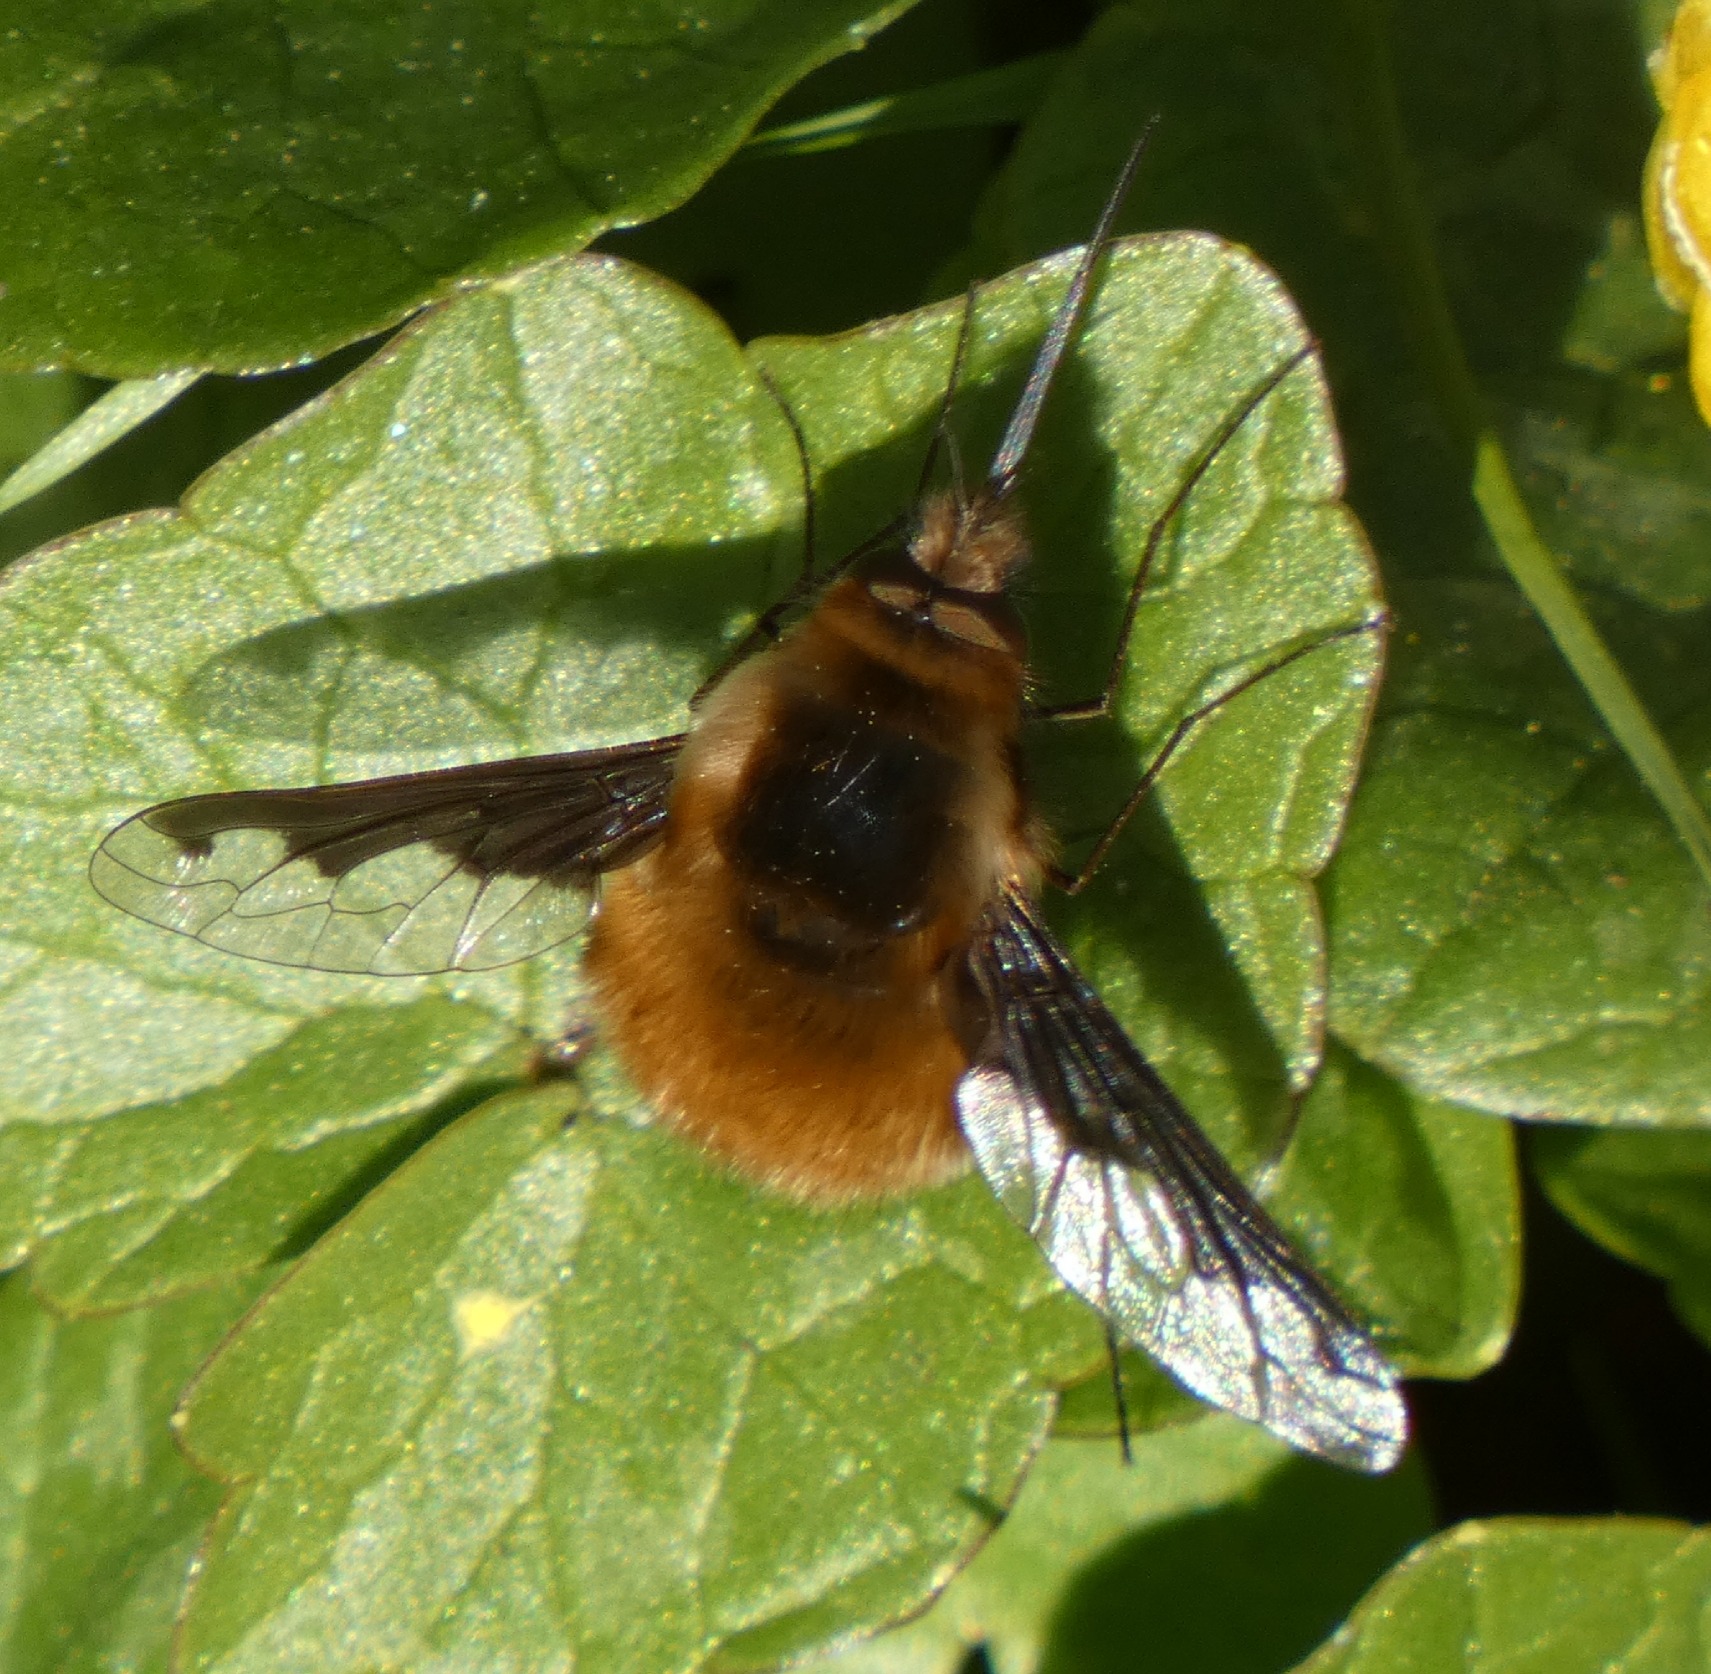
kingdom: Animalia
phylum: Arthropoda
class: Insecta
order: Diptera
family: Bombyliidae
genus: Bombylius
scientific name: Bombylius major
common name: Stor humleflue
